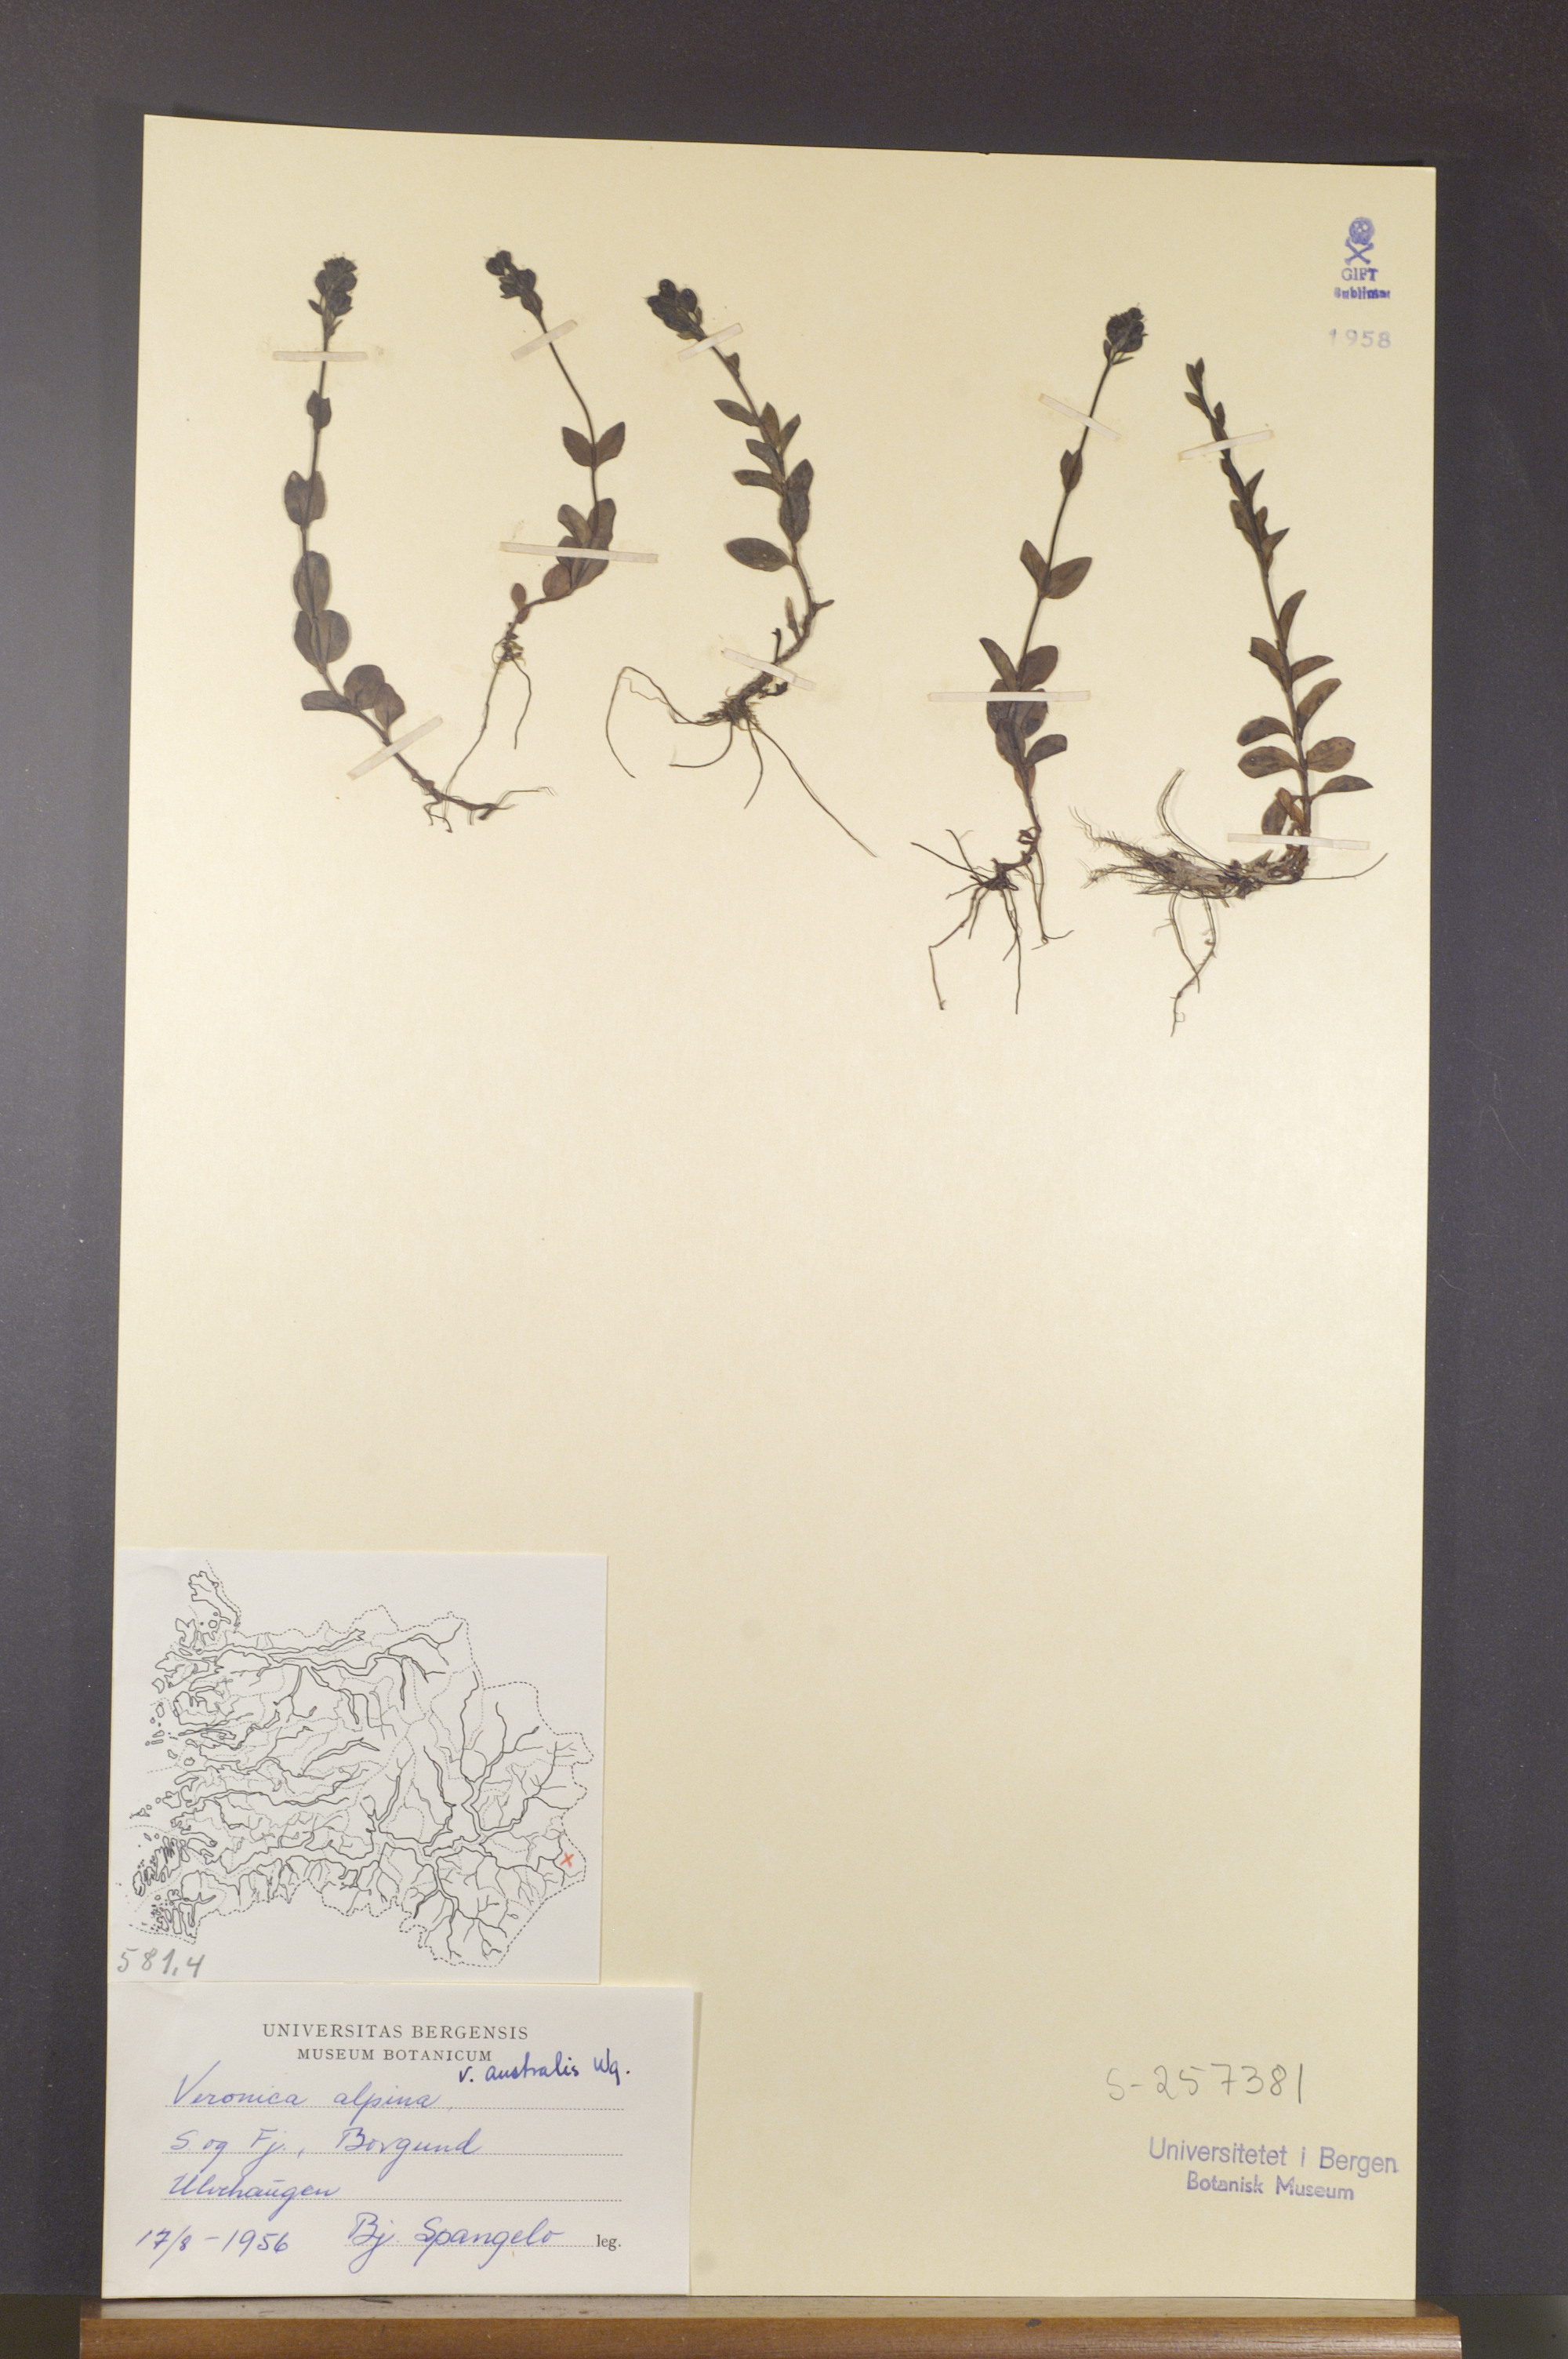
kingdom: Plantae
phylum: Tracheophyta
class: Magnoliopsida
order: Lamiales
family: Plantaginaceae
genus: Veronica
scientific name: Veronica alpina
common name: Alpine speedwell
